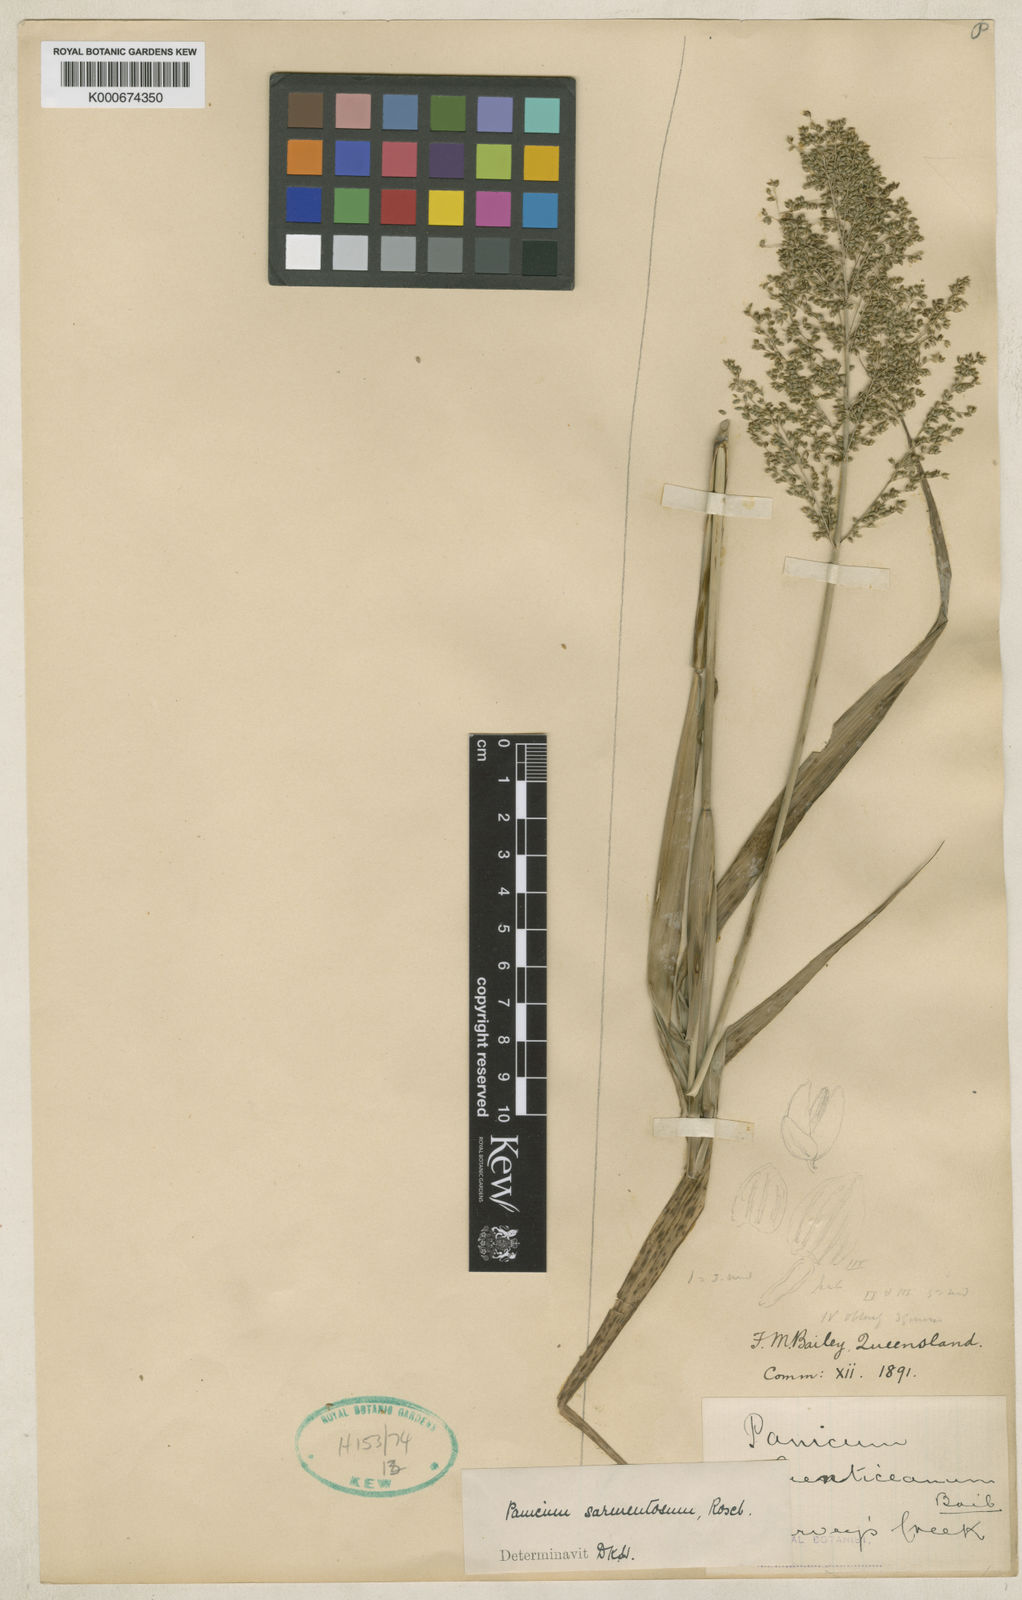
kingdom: Plantae
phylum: Tracheophyta
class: Liliopsida
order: Poales
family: Poaceae
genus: Panicum
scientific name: Panicum sarmentosum
